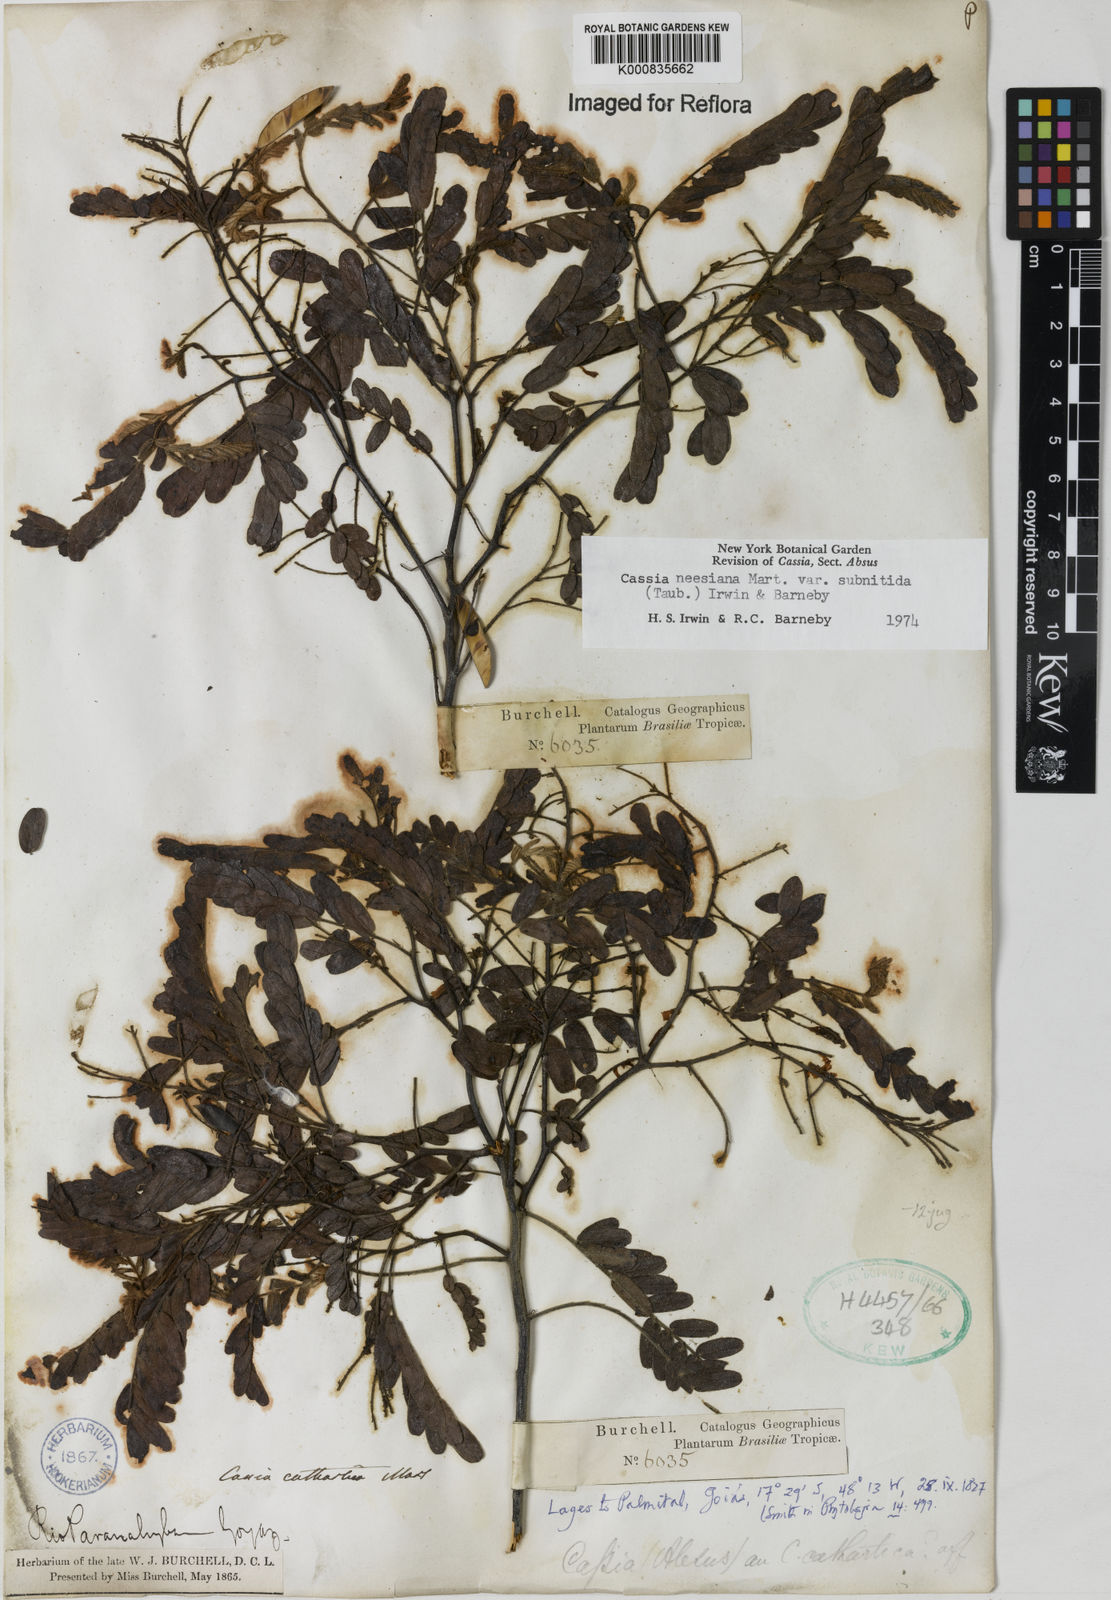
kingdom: Plantae
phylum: Tracheophyta
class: Magnoliopsida
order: Fabales
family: Fabaceae
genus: Chamaecrista
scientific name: Chamaecrista neesiana
